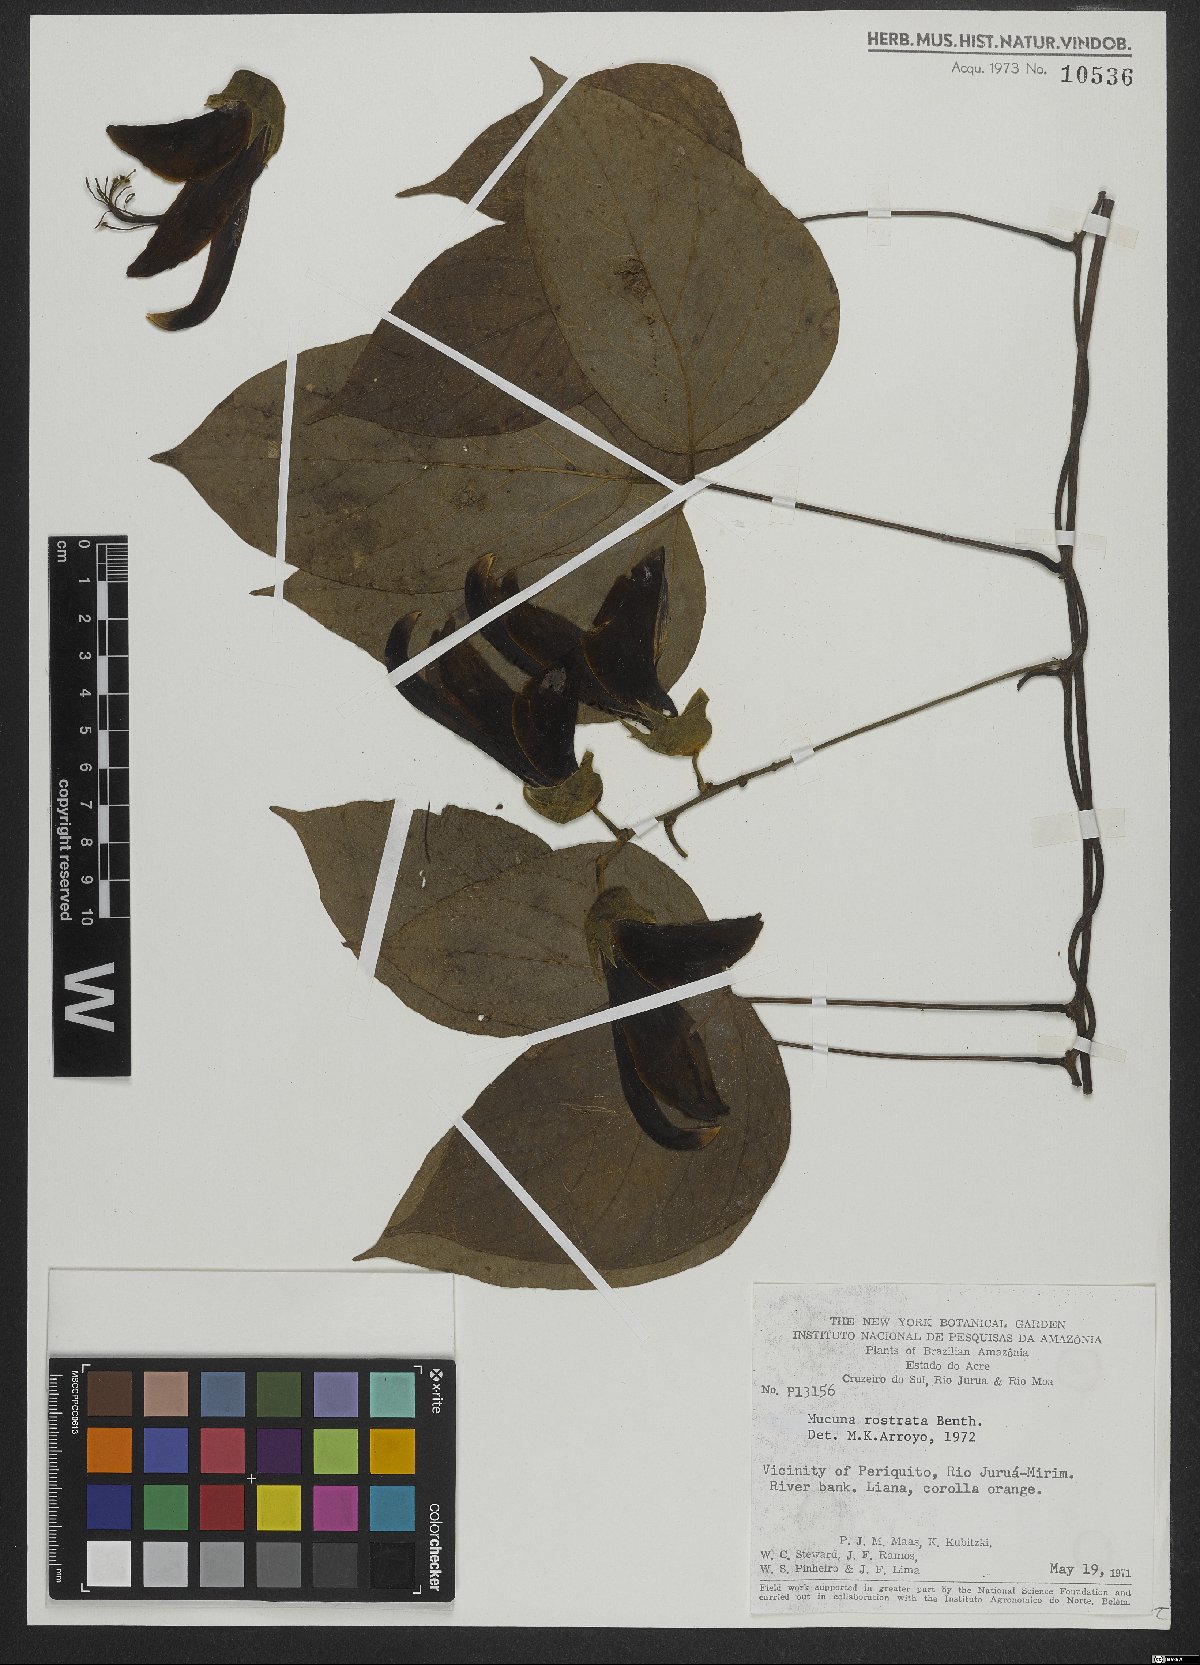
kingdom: Plantae
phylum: Tracheophyta
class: Magnoliopsida
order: Fabales
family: Fabaceae
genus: Mucuna
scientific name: Mucuna sloanei
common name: Horse-eye bean
